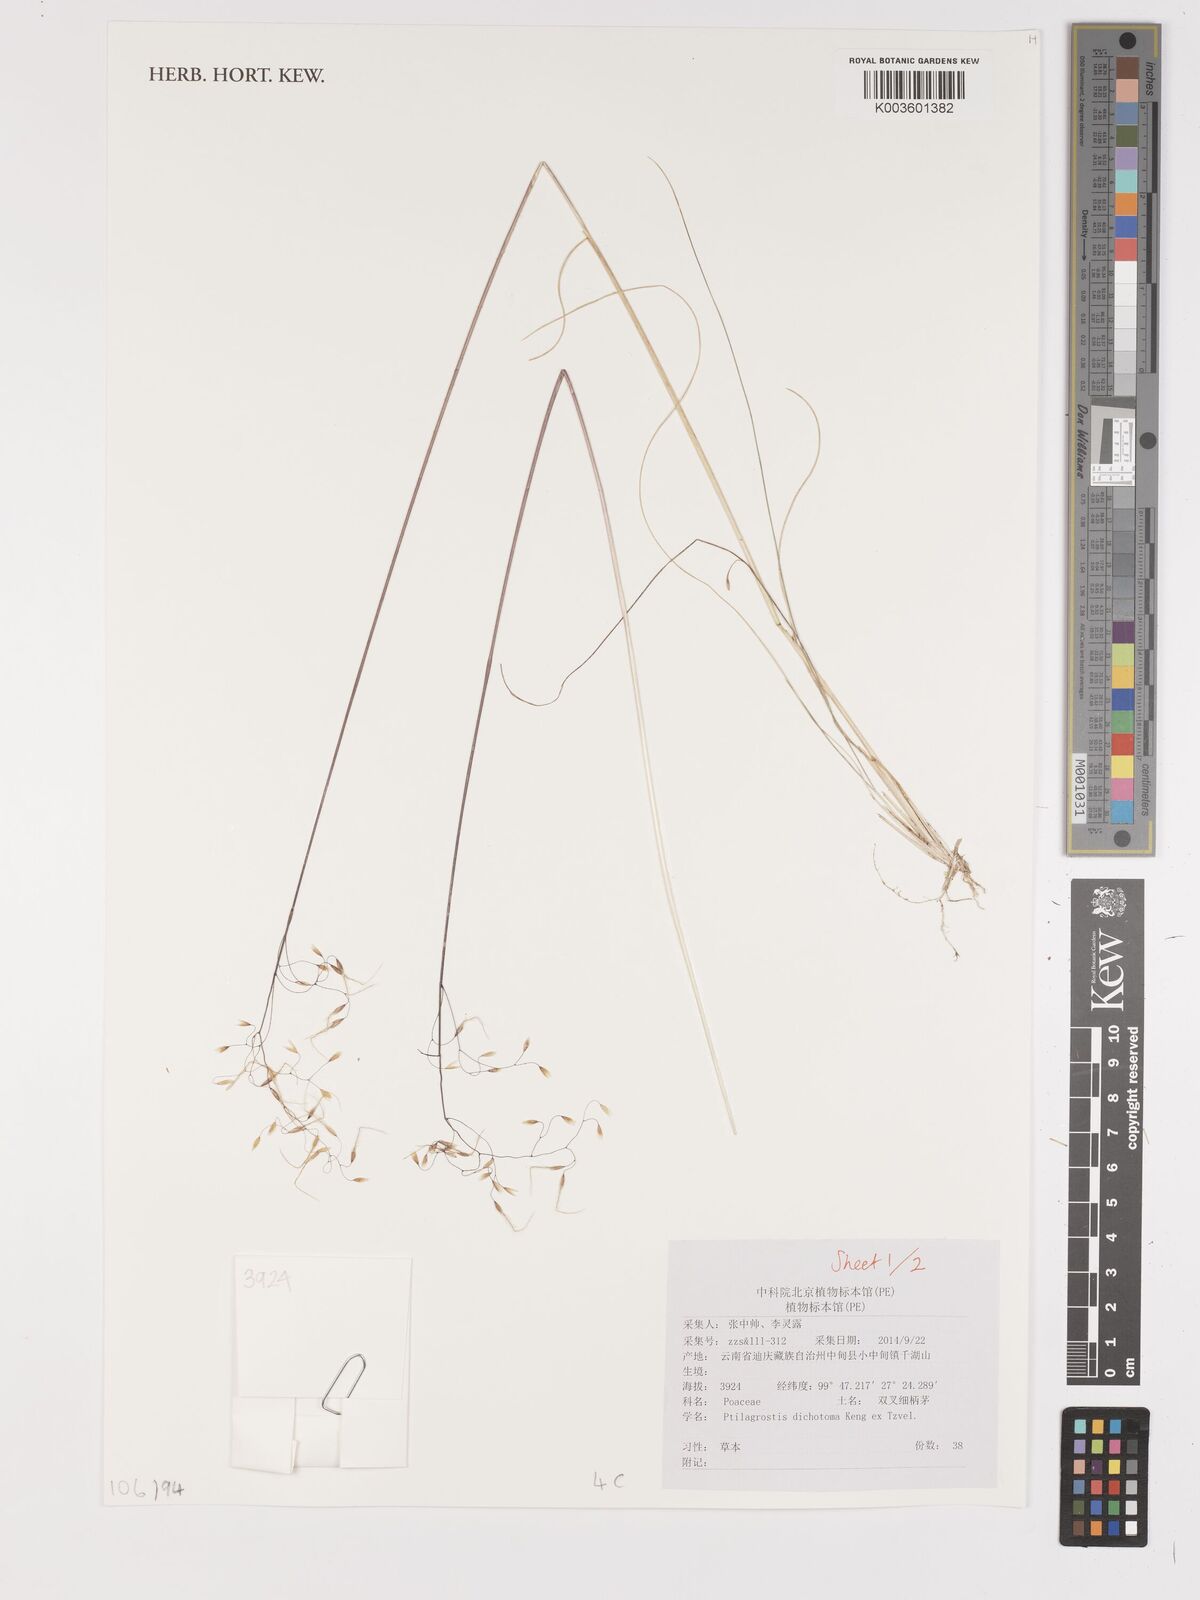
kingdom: Plantae
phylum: Tracheophyta
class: Liliopsida
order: Poales
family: Poaceae
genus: Stipa
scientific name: Stipa
